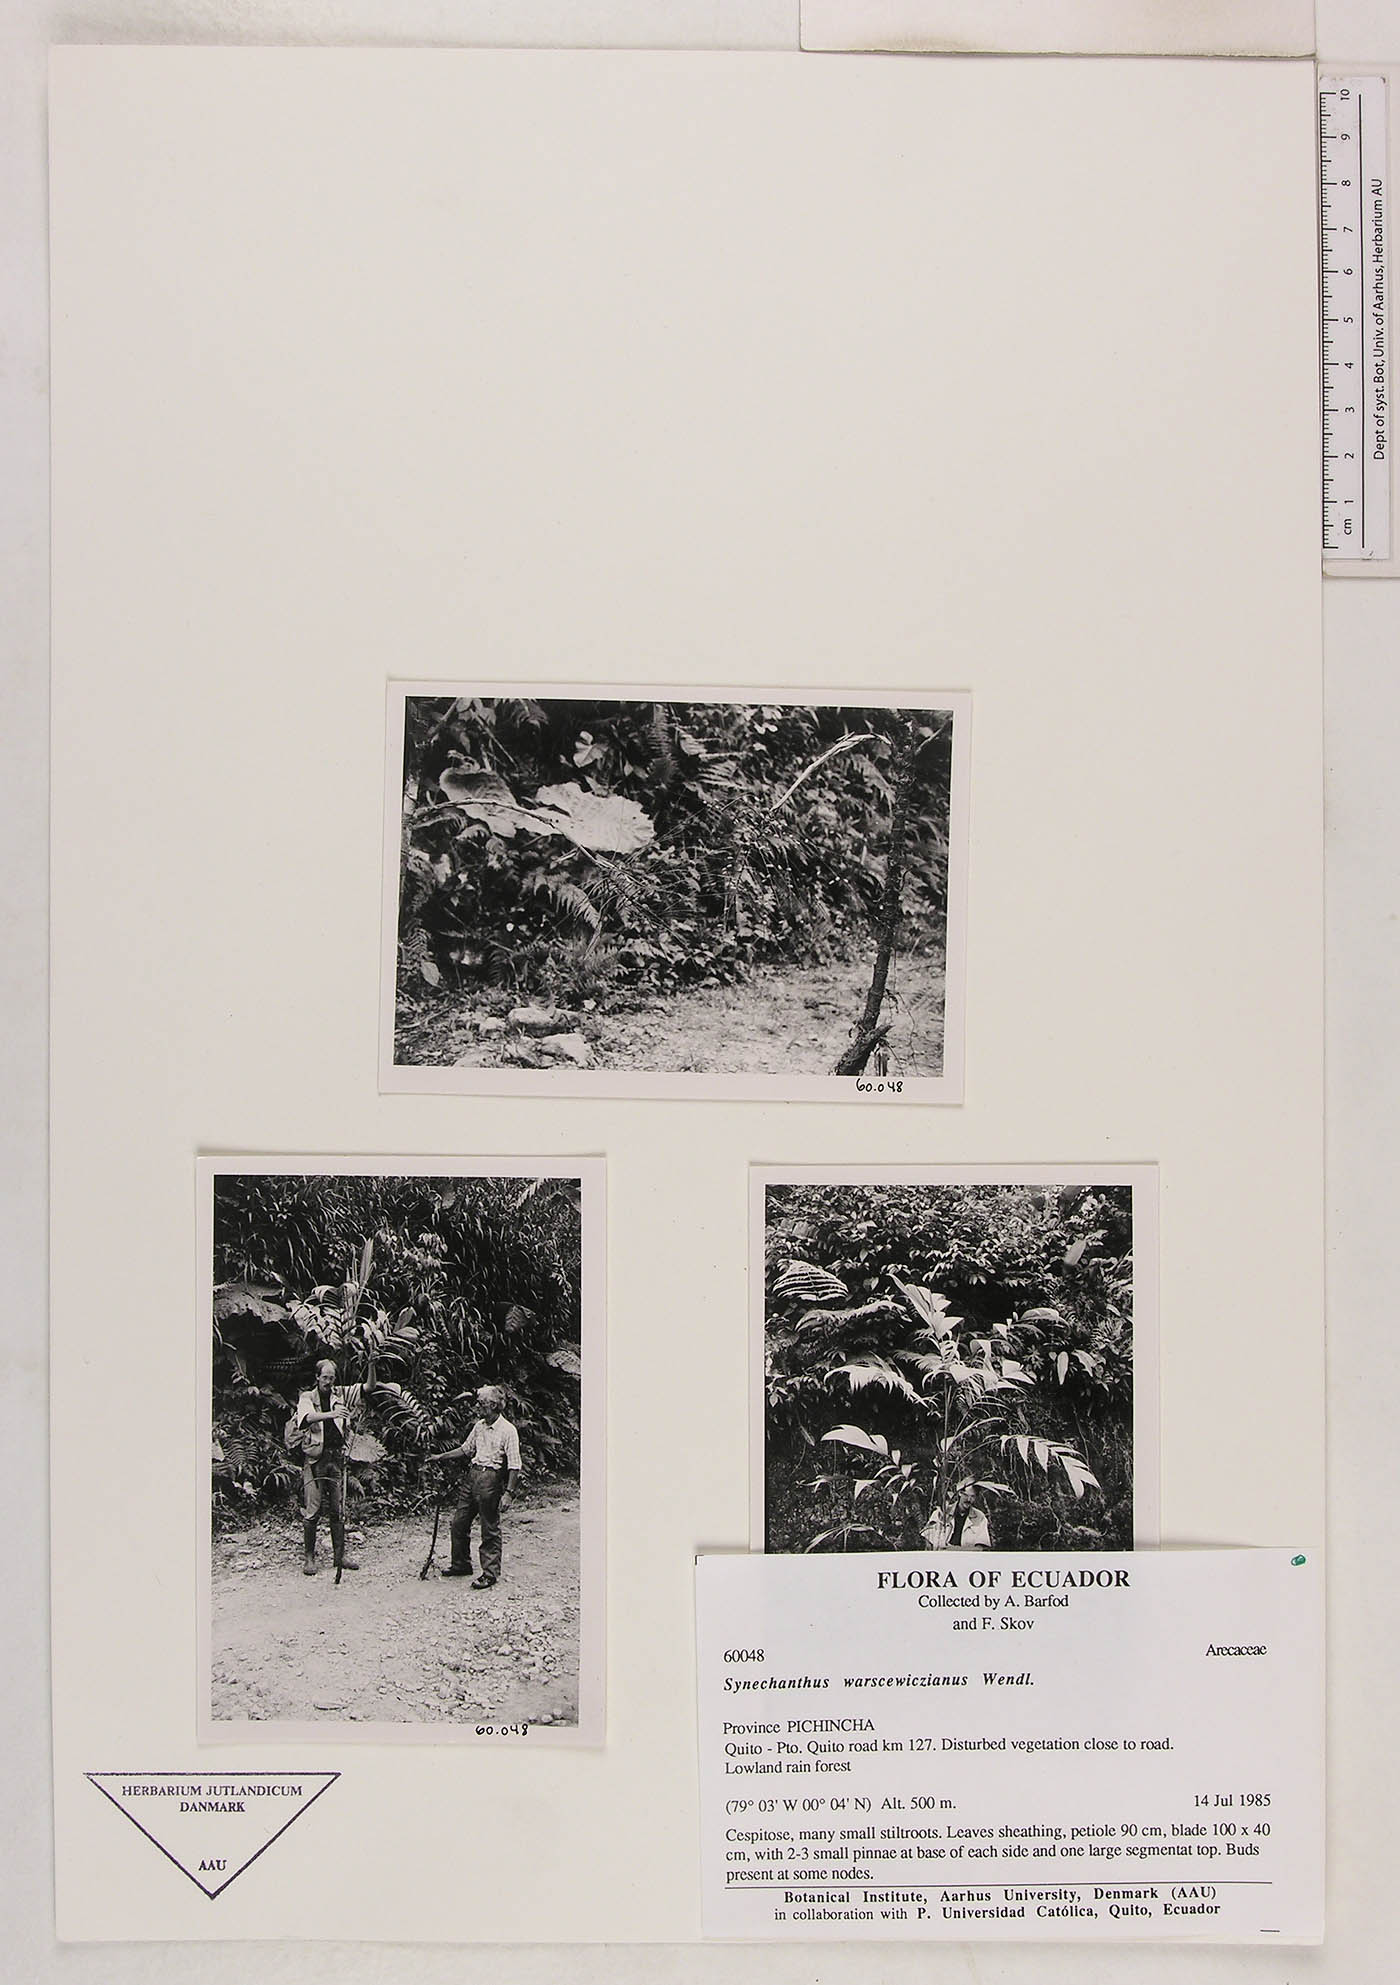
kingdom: Plantae
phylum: Tracheophyta
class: Liliopsida
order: Arecales
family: Arecaceae
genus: Synechanthus
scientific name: Synechanthus warscewiczianus
